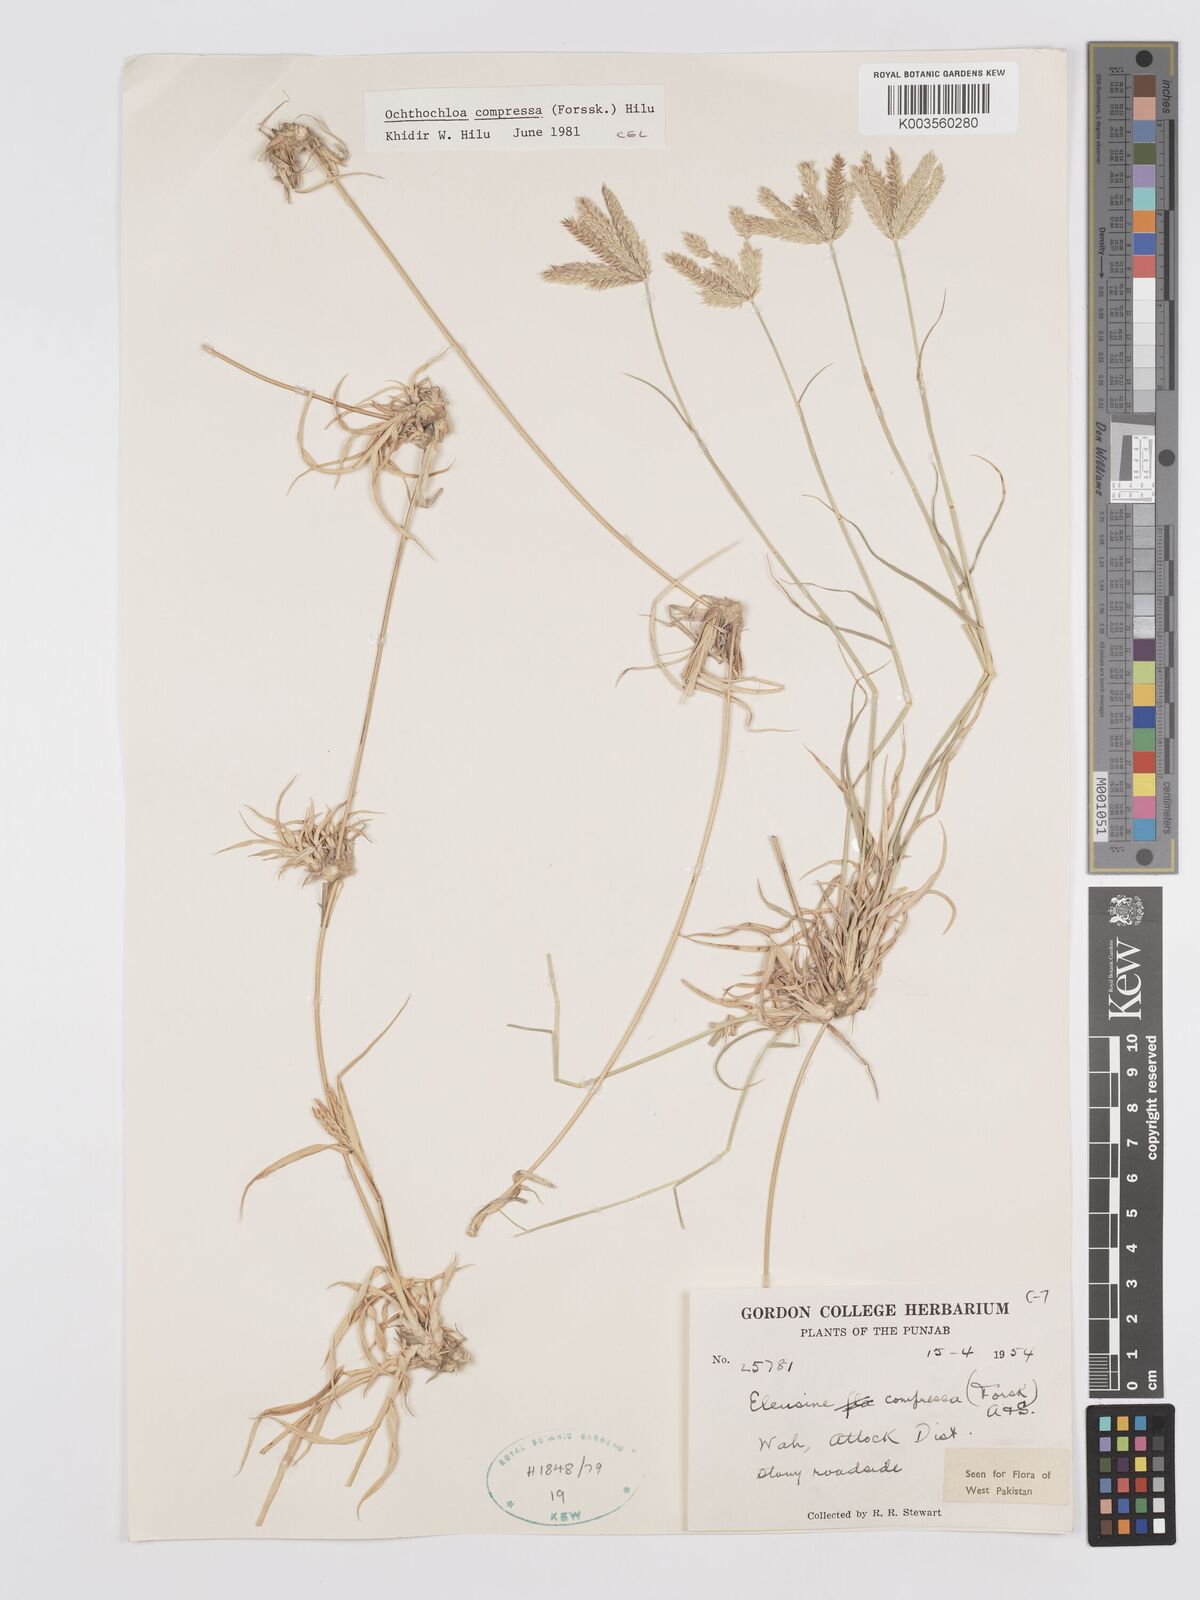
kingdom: Plantae
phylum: Tracheophyta
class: Liliopsida
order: Poales
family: Poaceae
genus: Chloris
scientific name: Chloris flagellifera
